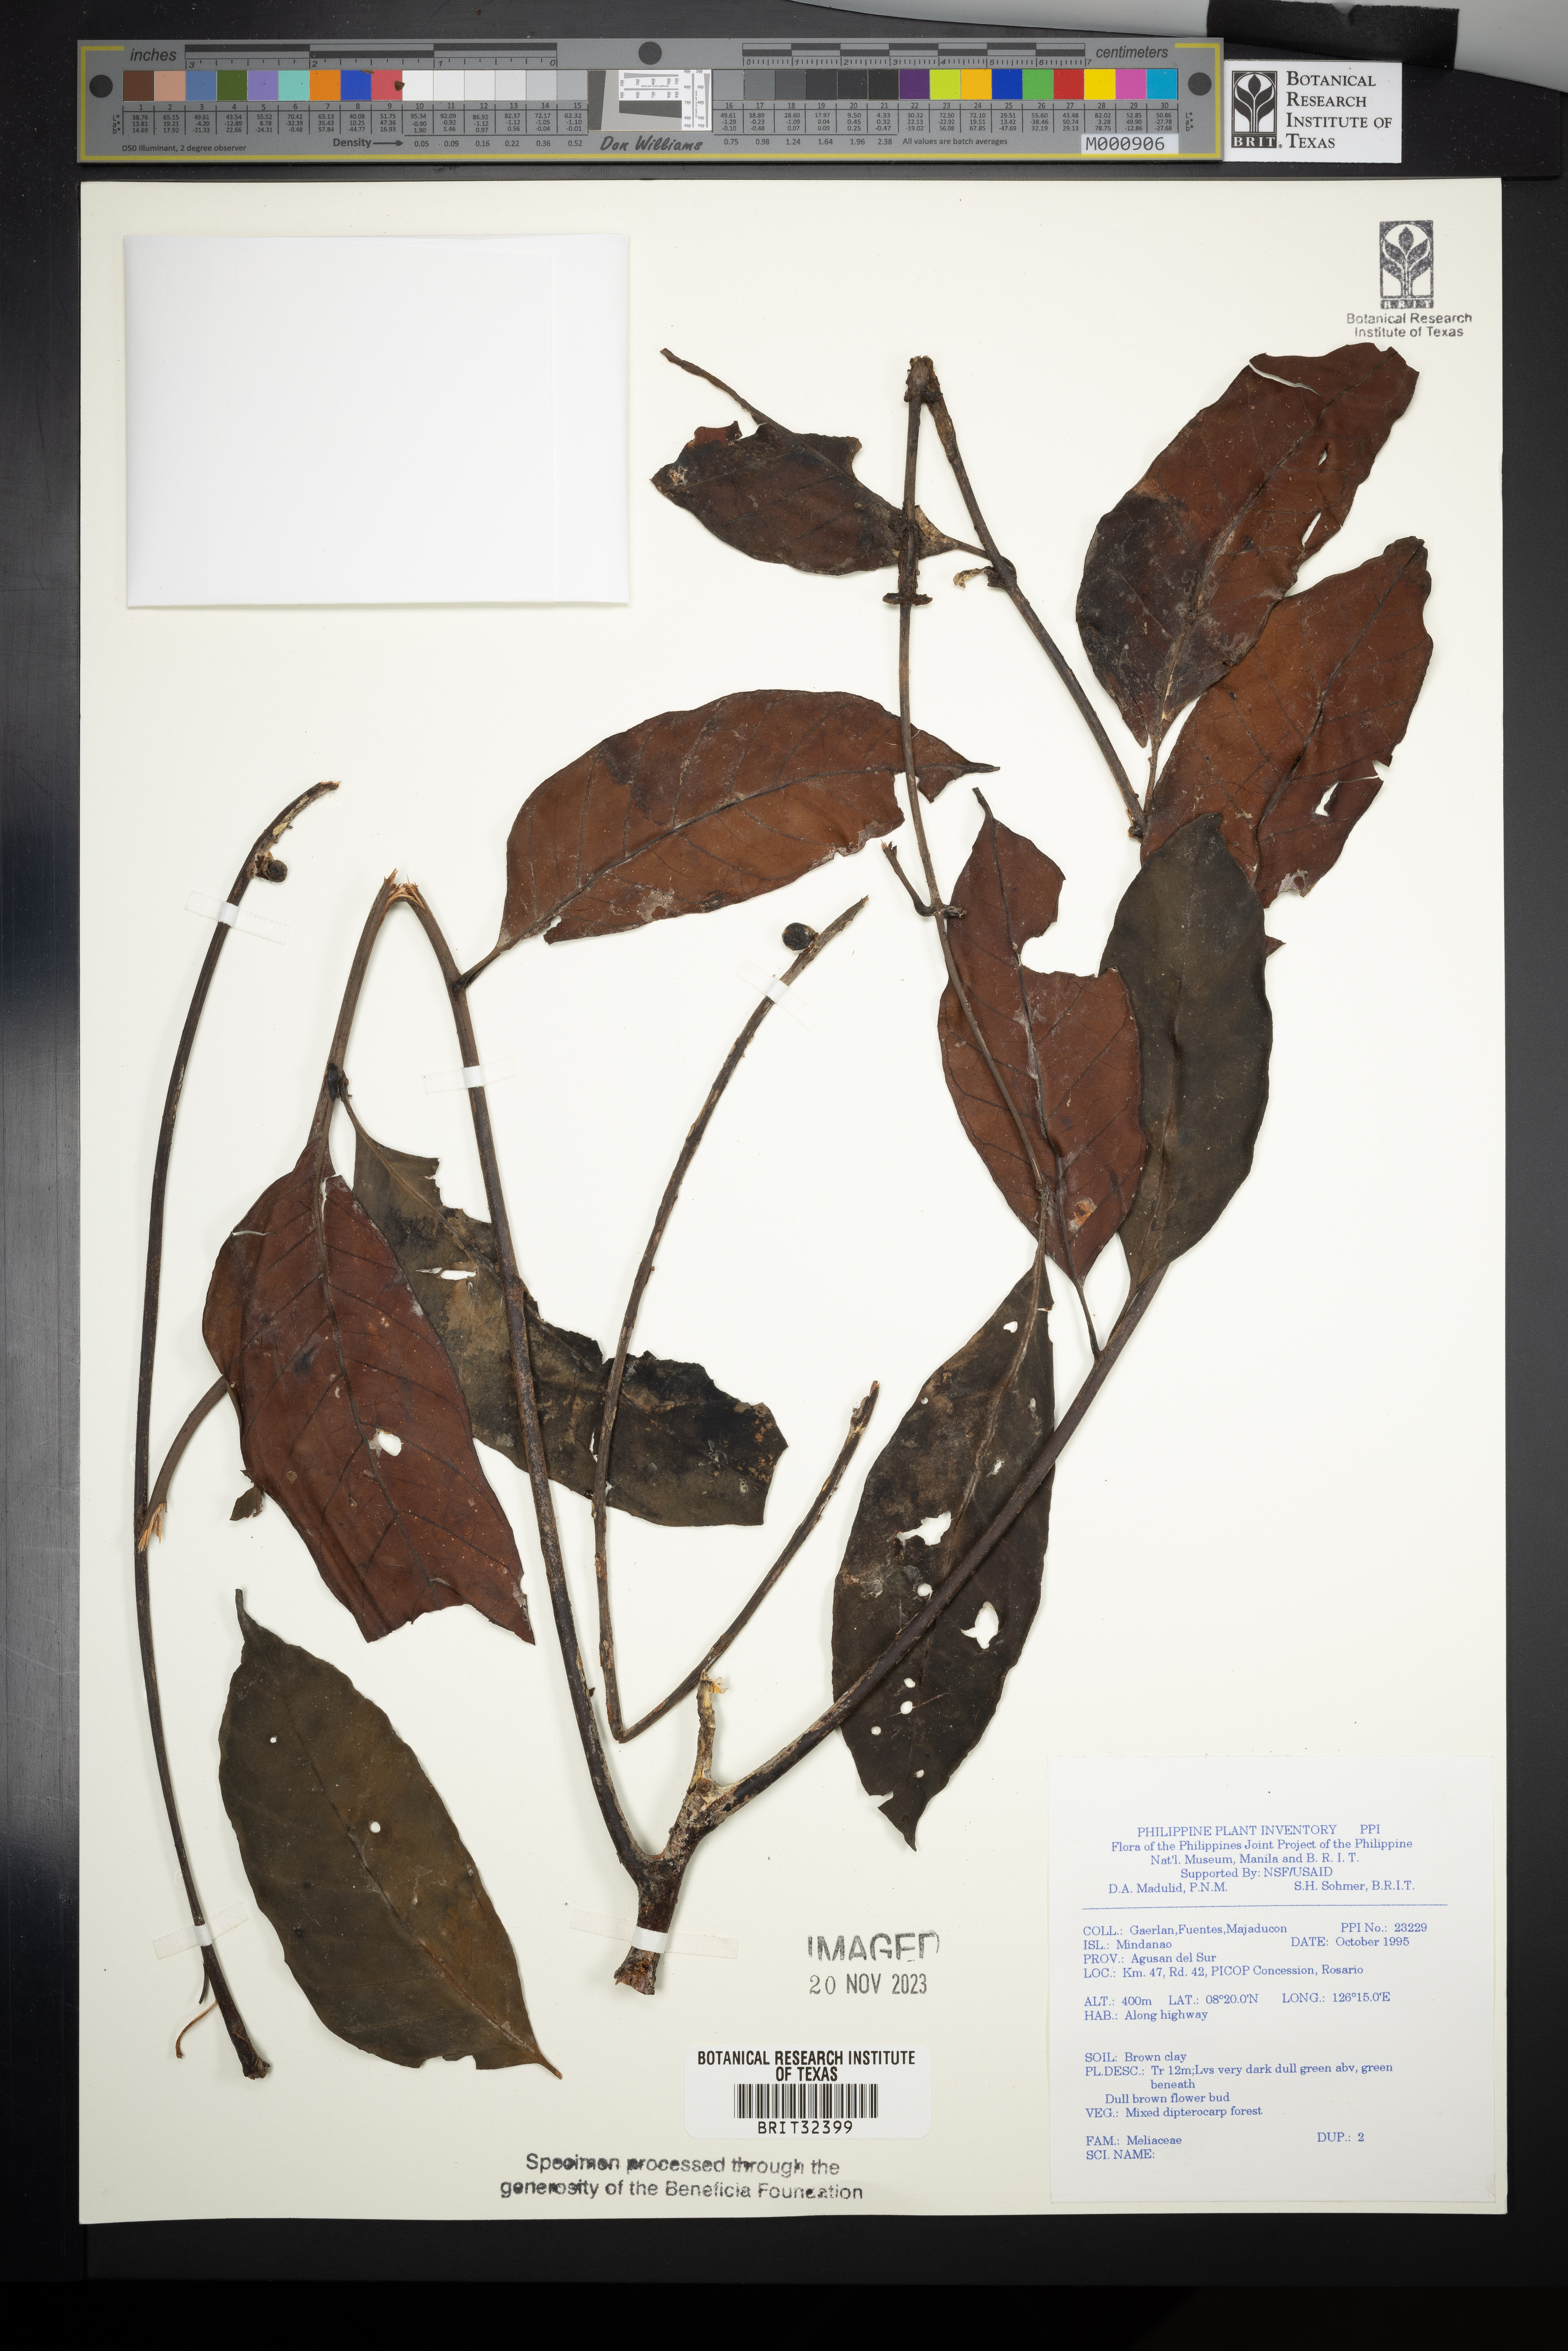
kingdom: Plantae
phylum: Tracheophyta
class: Magnoliopsida
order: Sapindales
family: Meliaceae
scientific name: Meliaceae
